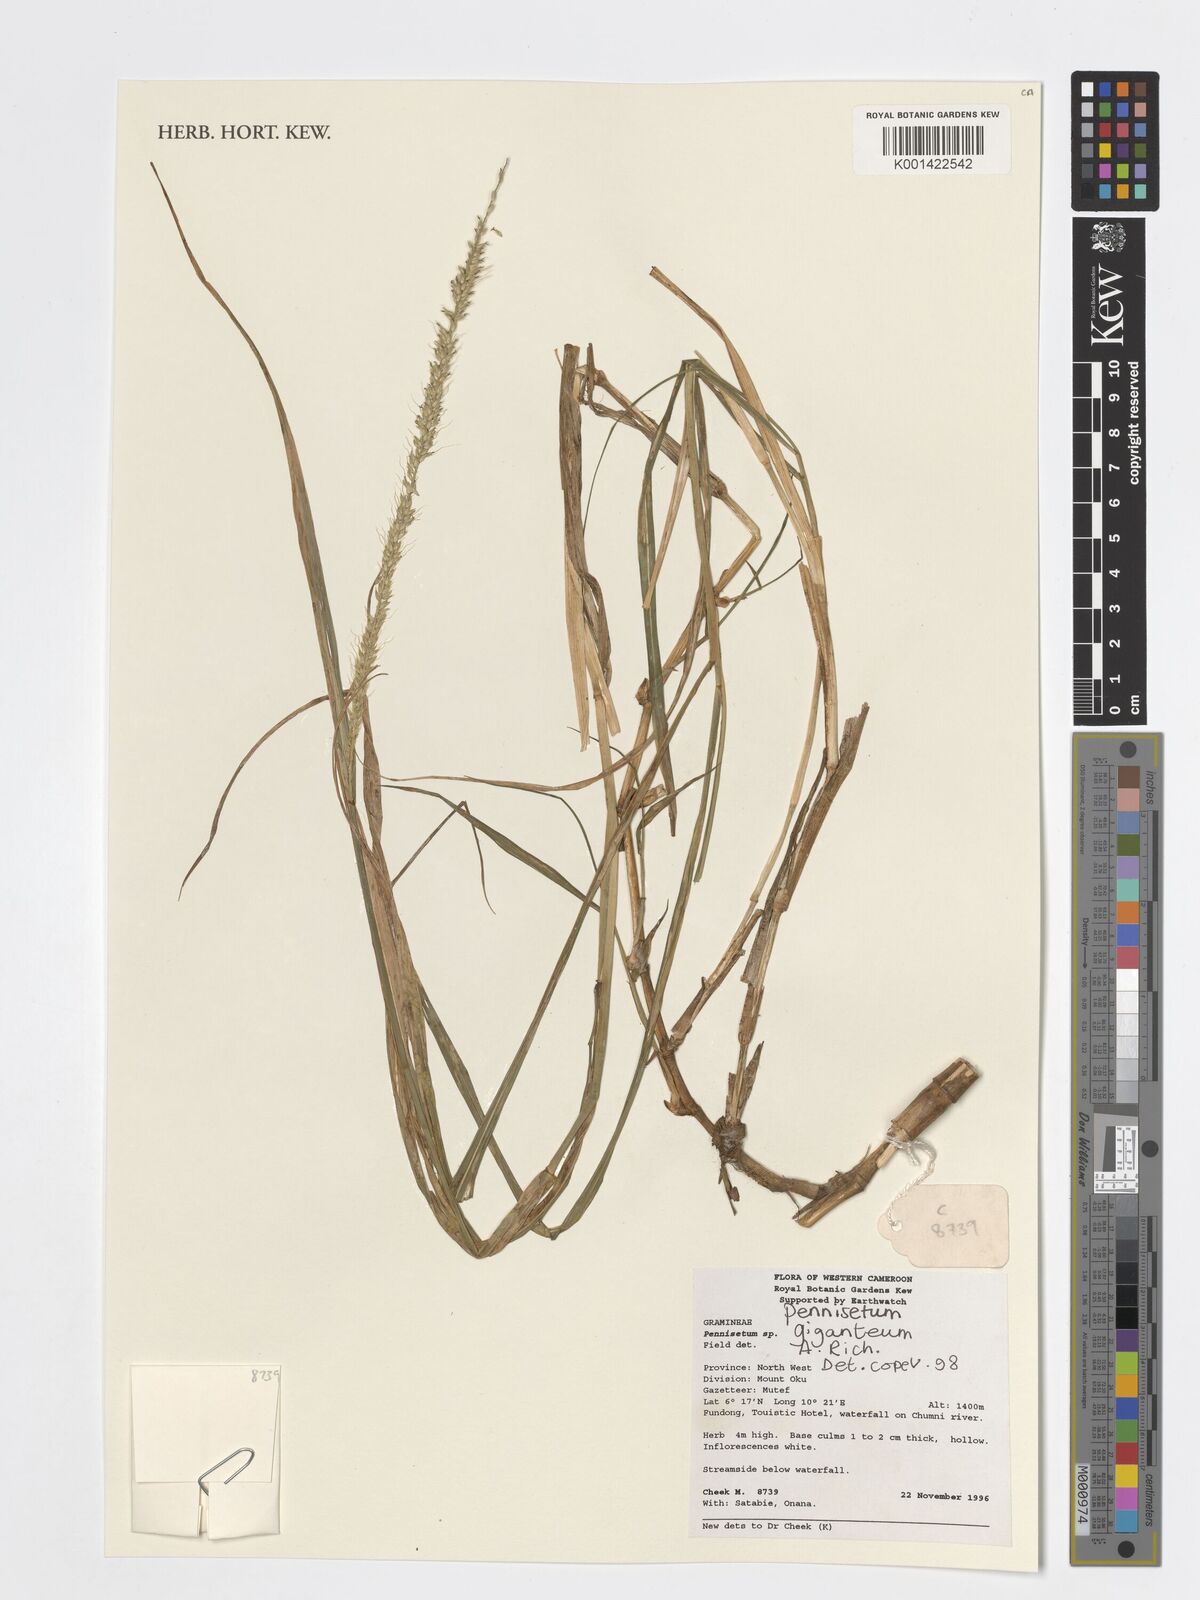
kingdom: Plantae
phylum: Tracheophyta
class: Liliopsida
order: Poales
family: Poaceae
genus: Cenchrus
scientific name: Cenchrus caudatus
